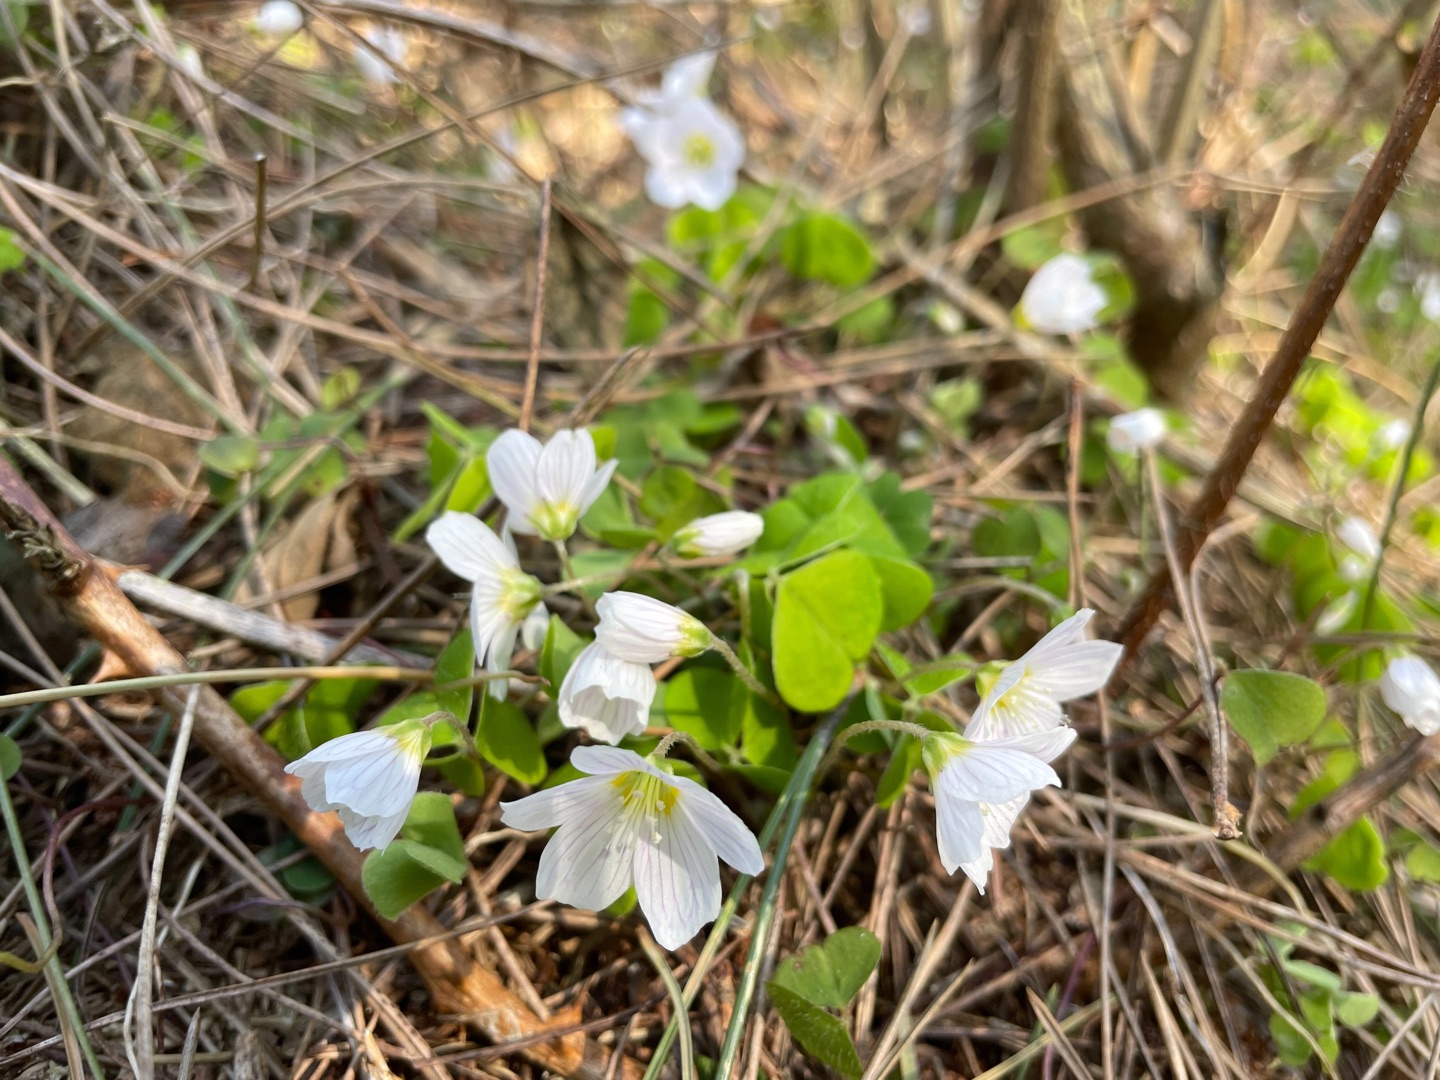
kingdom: Plantae
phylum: Tracheophyta
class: Magnoliopsida
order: Oxalidales
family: Oxalidaceae
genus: Oxalis
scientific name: Oxalis acetosella
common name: Skovsyre
